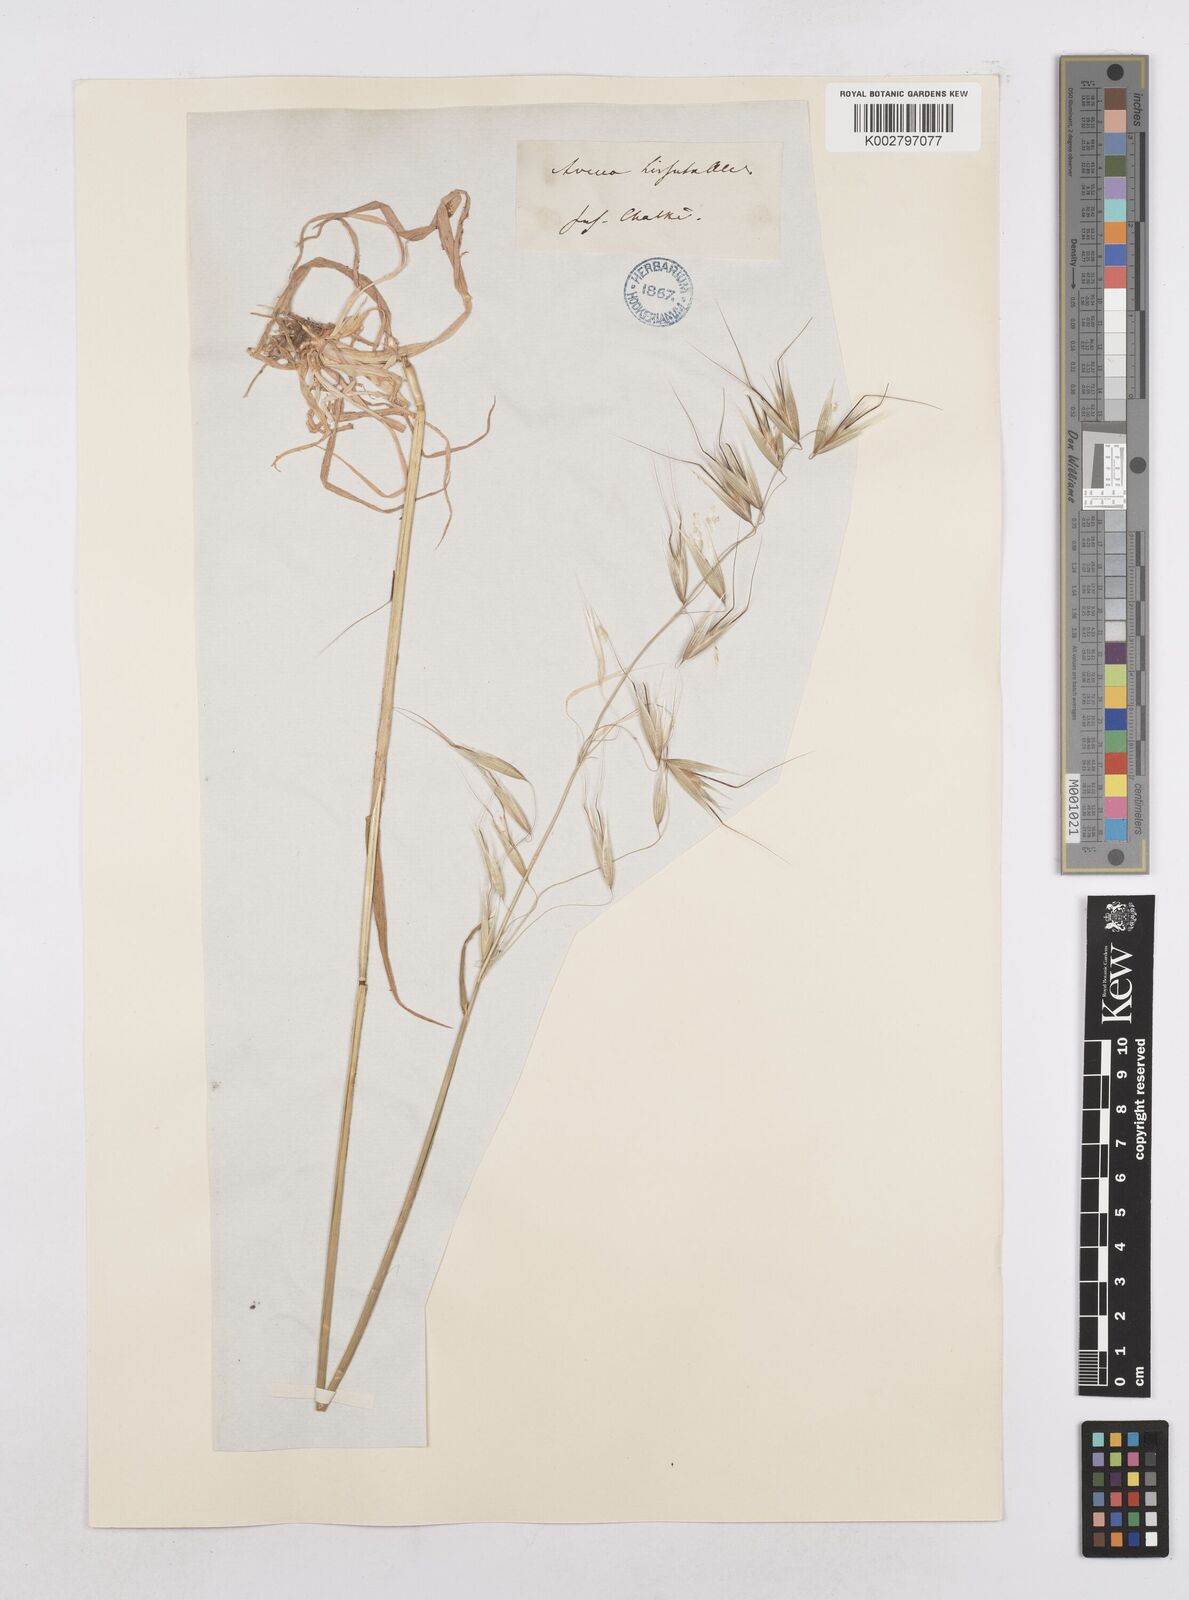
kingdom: Plantae
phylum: Tracheophyta
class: Liliopsida
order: Poales
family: Poaceae
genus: Avena
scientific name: Avena
